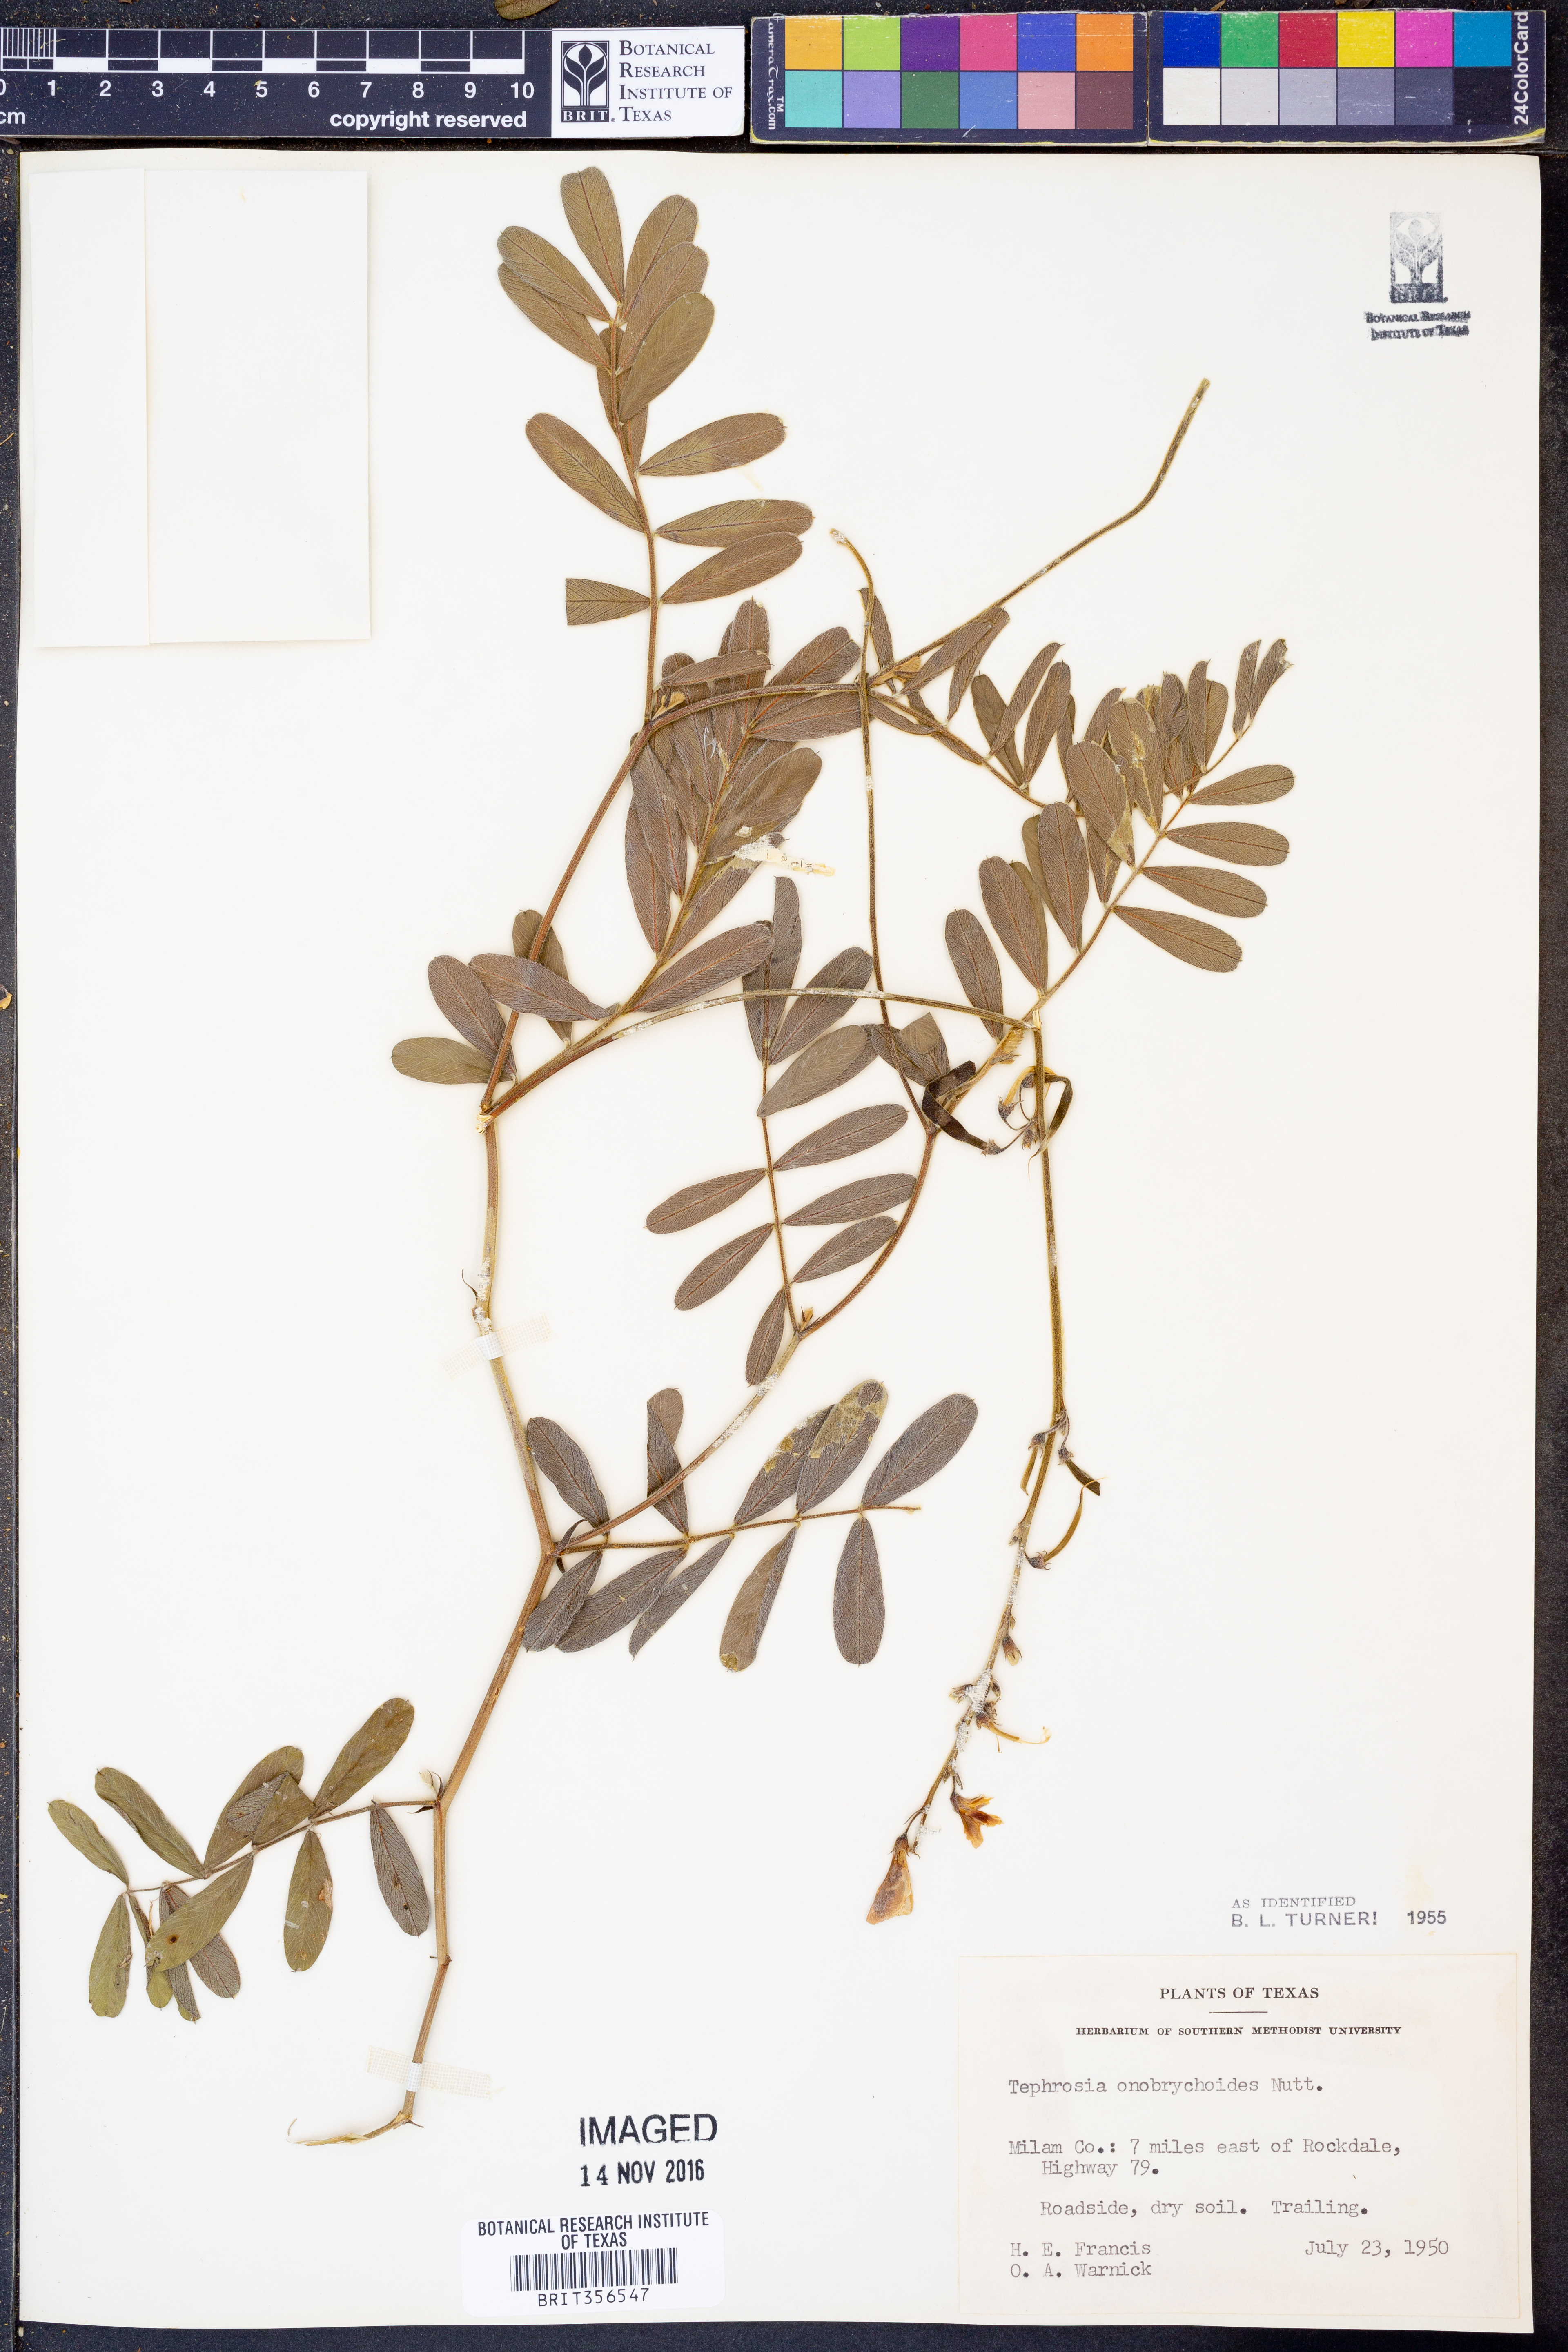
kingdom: Plantae
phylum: Tracheophyta
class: Magnoliopsida
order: Fabales
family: Fabaceae
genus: Tephrosia
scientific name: Tephrosia onobrychoides
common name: Multi-bloom hoary-pea
